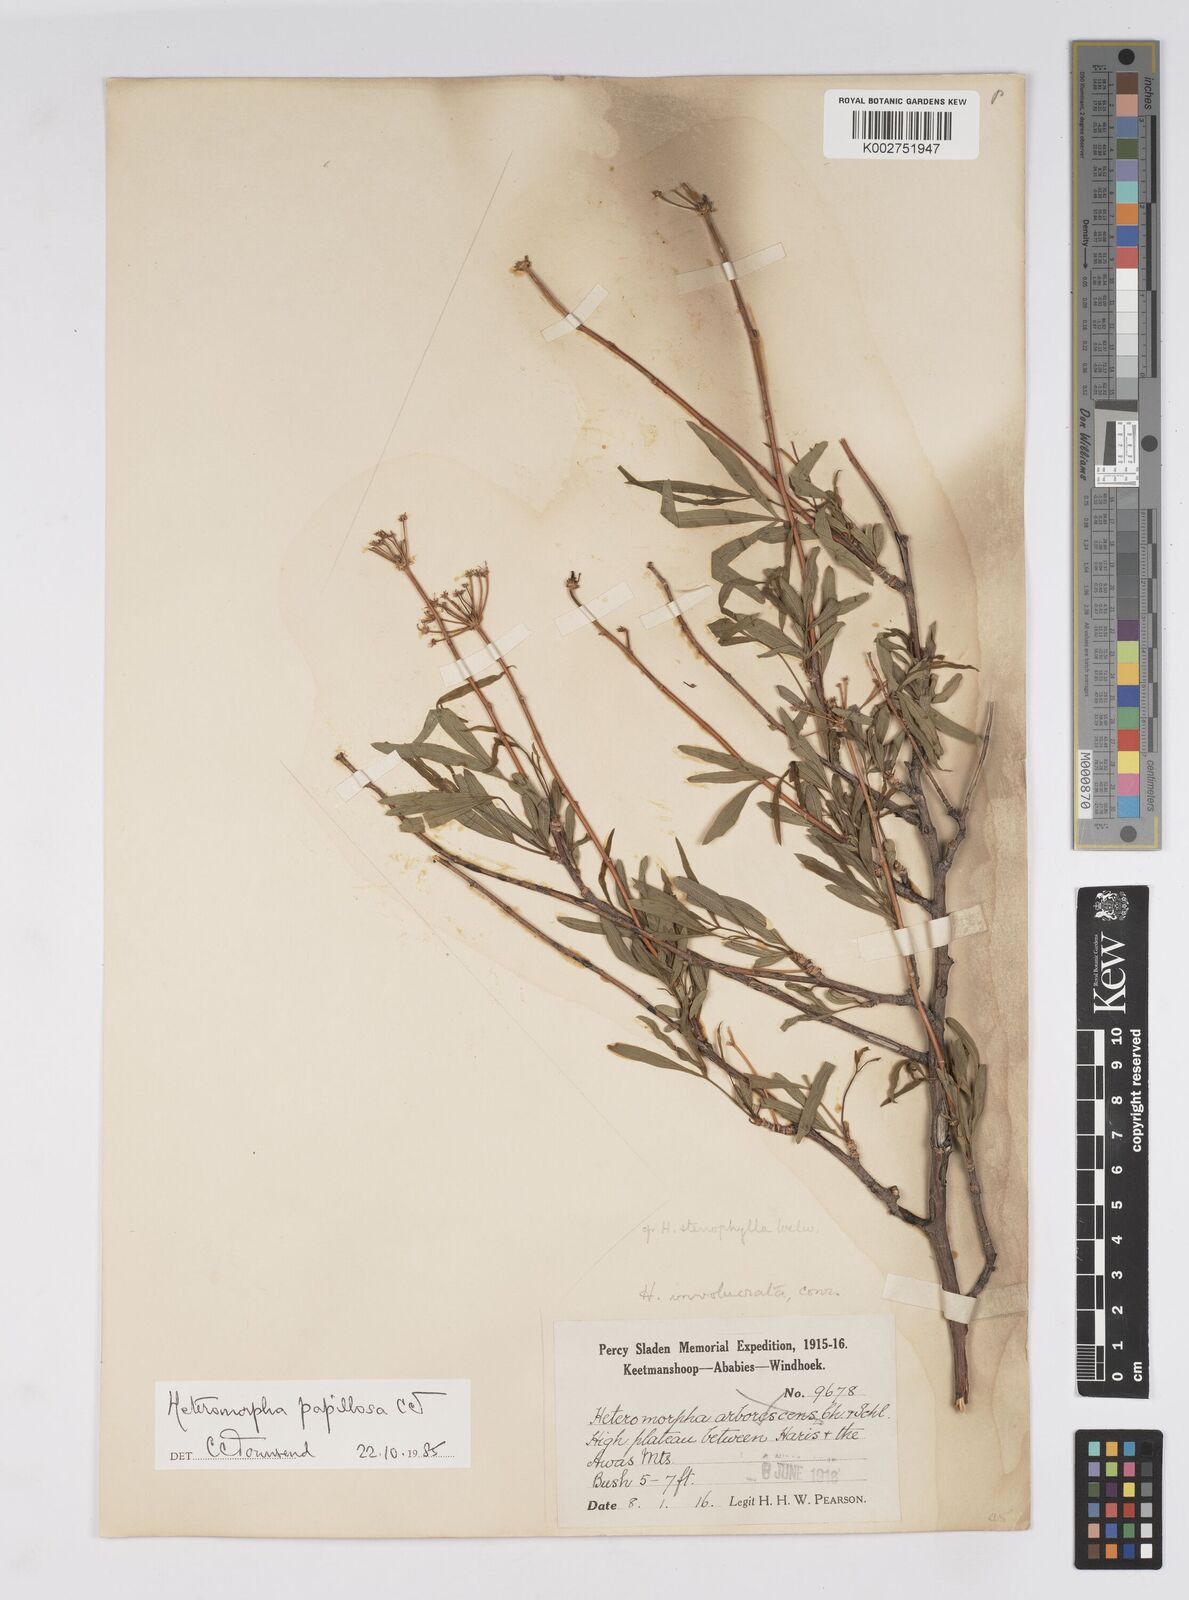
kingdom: Plantae
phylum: Tracheophyta
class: Magnoliopsida
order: Apiales
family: Apiaceae
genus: Heteromorpha
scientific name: Heteromorpha papillosa
